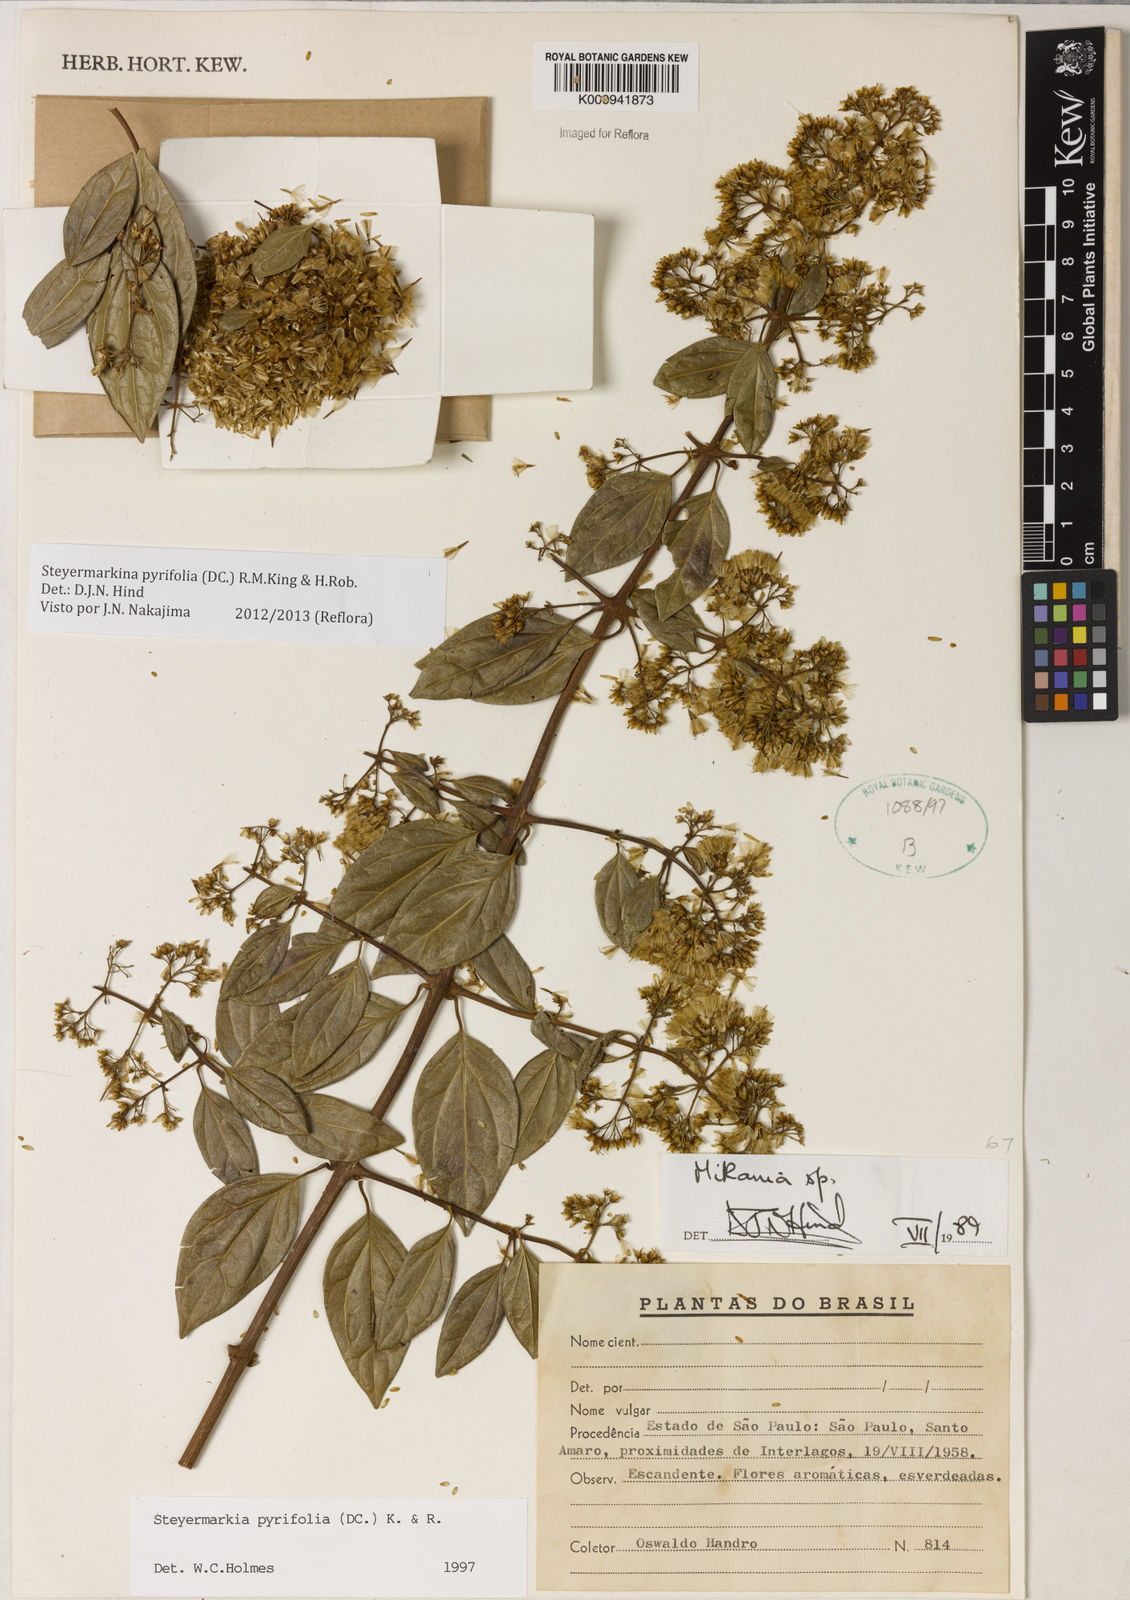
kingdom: Plantae
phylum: Tracheophyta
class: Magnoliopsida
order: Asterales
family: Asteraceae
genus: Steyermarkina
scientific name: Steyermarkina pyrifolia
